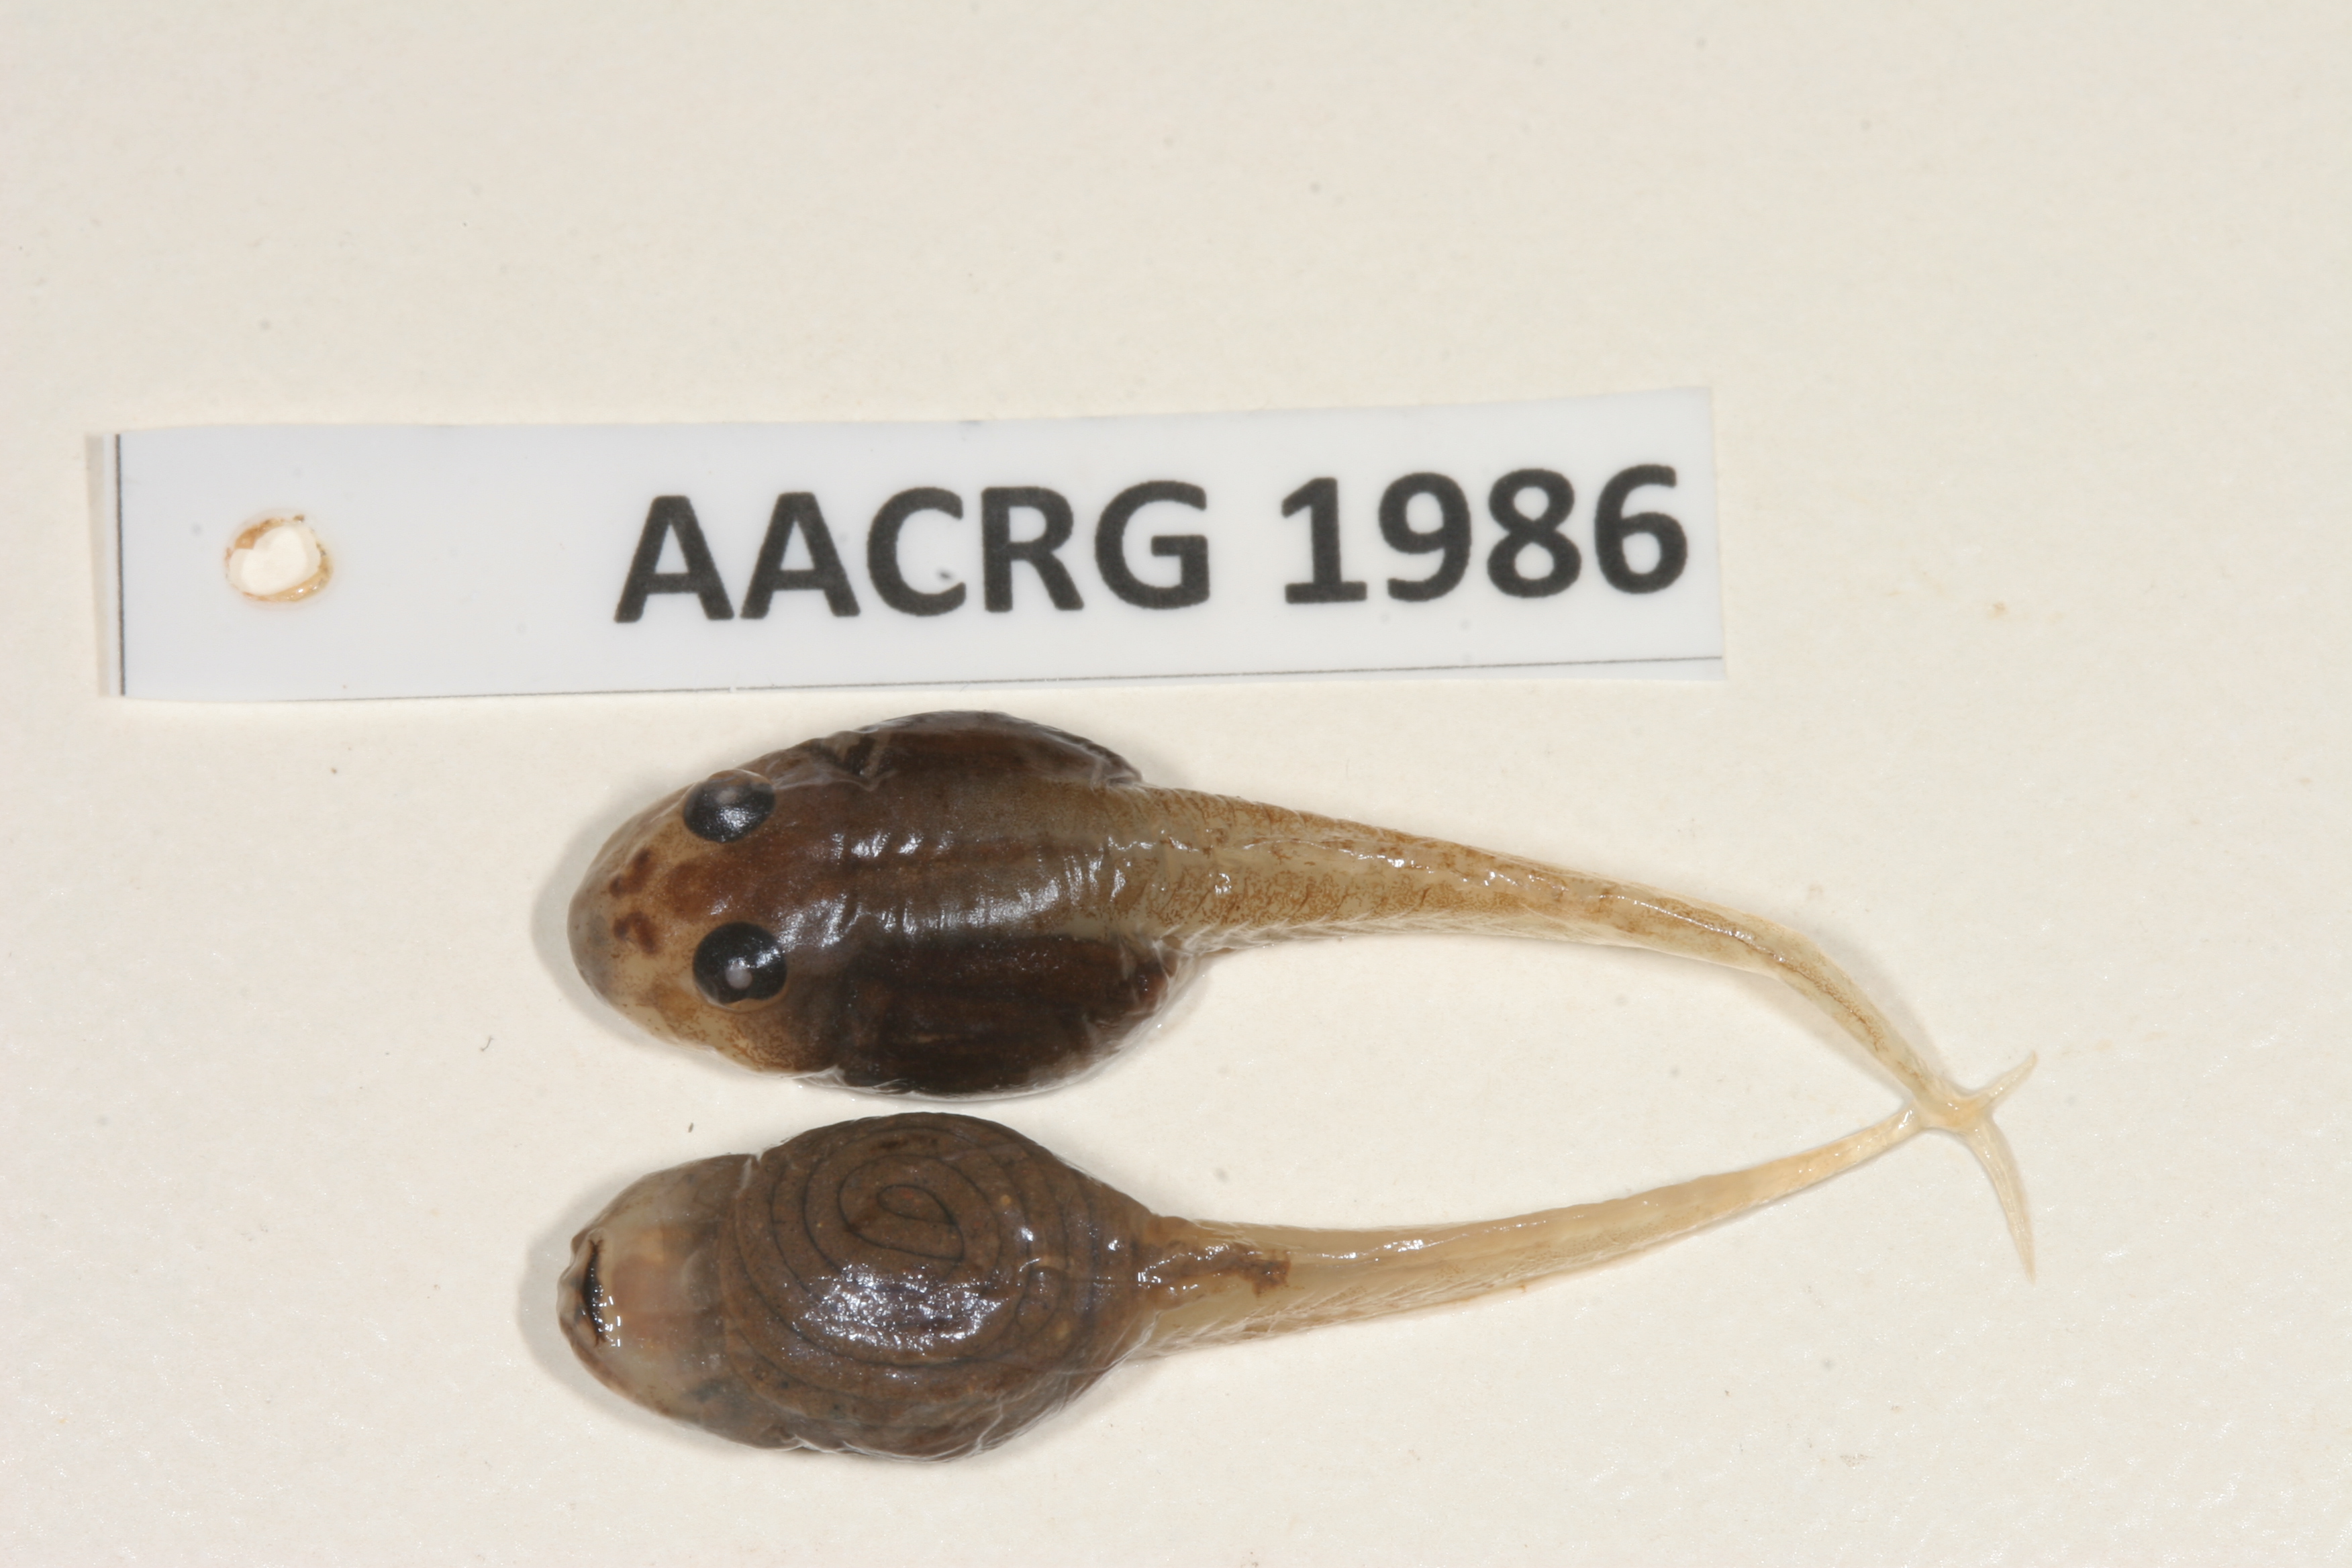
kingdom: Animalia
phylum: Chordata
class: Amphibia
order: Anura
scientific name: Anura
